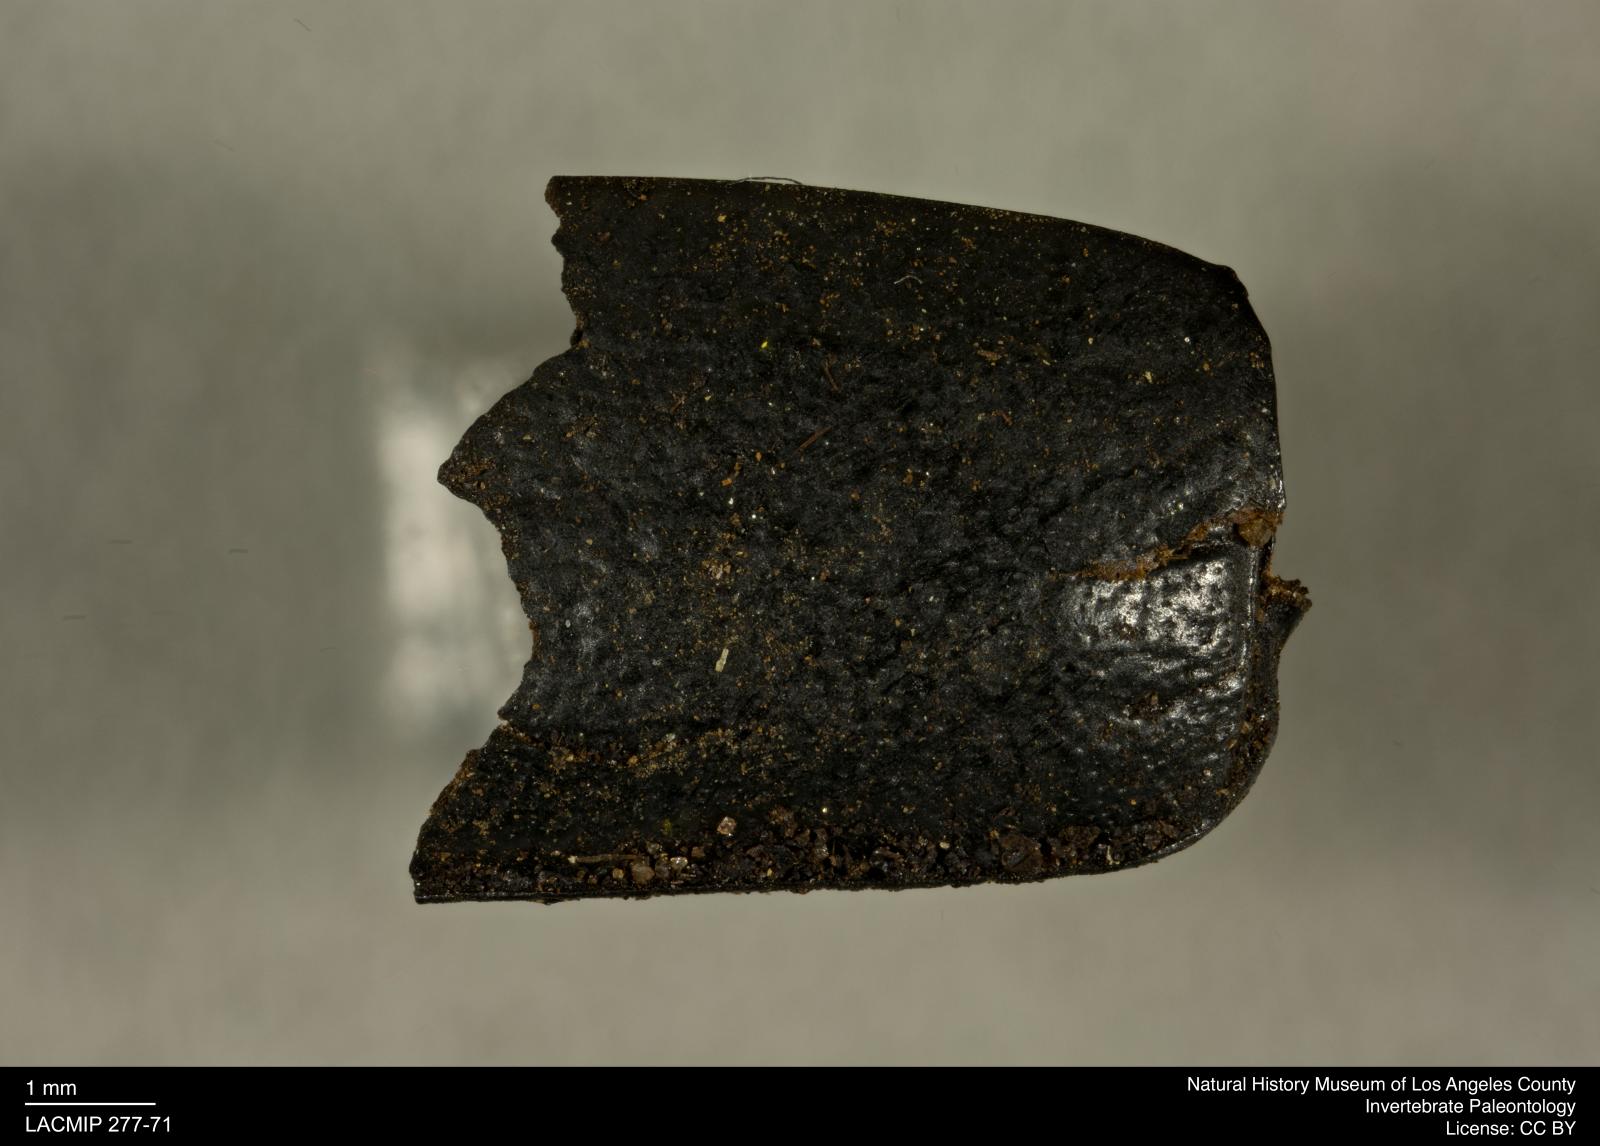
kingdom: Animalia
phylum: Arthropoda
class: Insecta
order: Coleoptera
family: Tenebrionidae
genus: Coniontis
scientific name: Coniontis abdominalis
